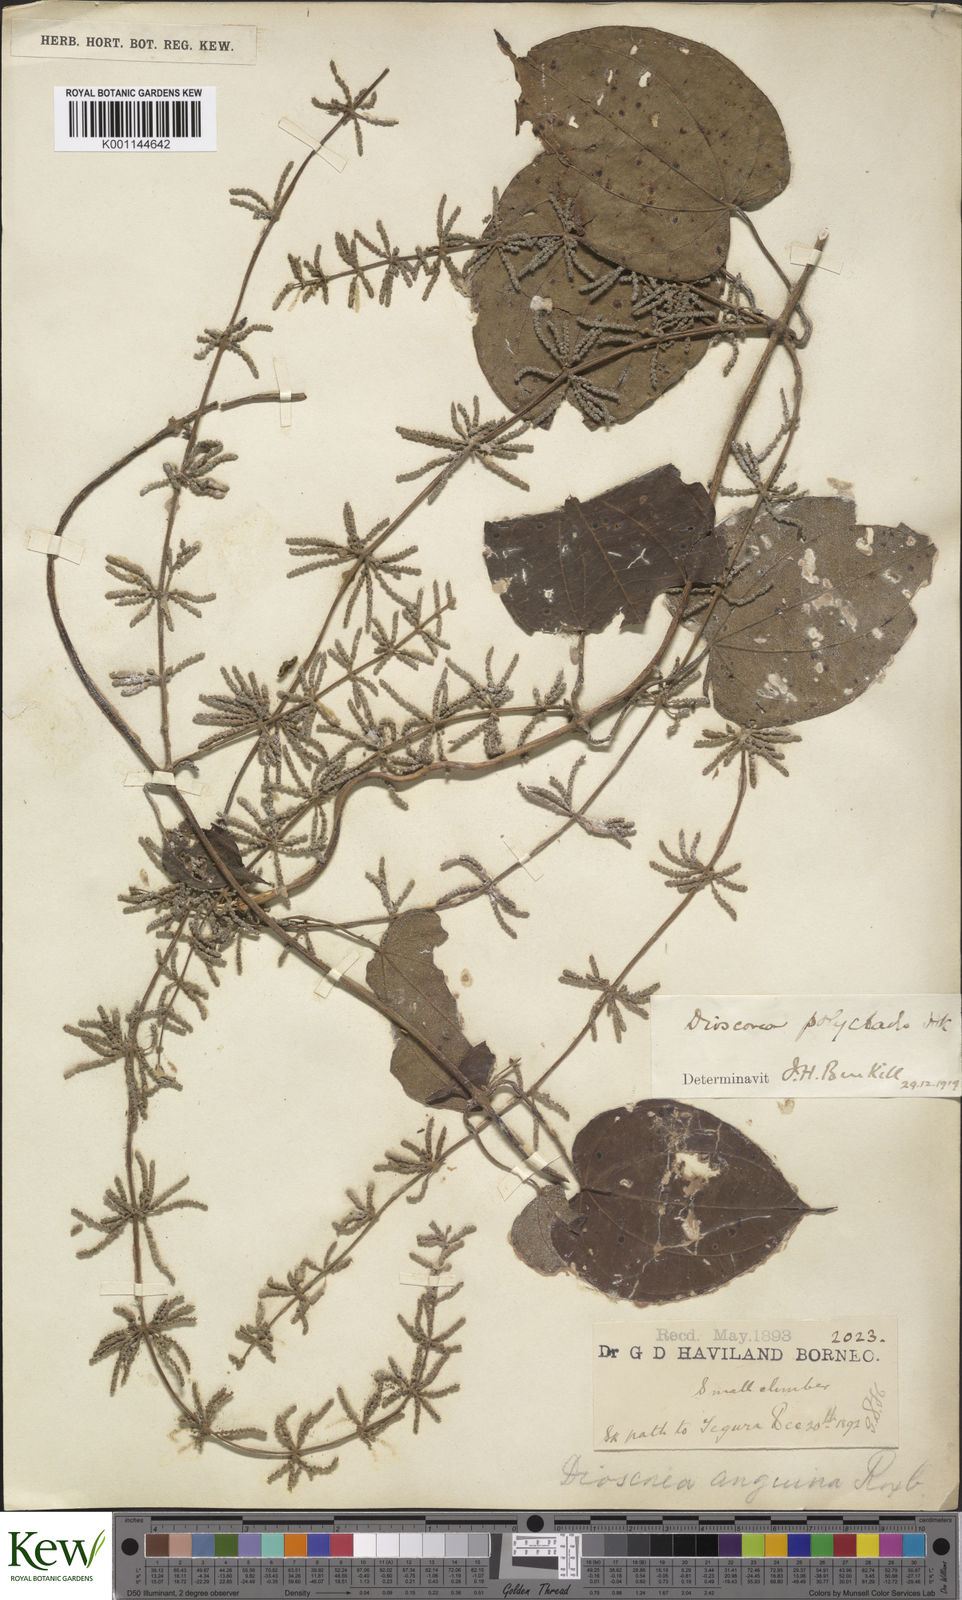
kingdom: Plantae
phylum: Tracheophyta
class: Liliopsida
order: Dioscoreales
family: Dioscoreaceae
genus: Dioscorea
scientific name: Dioscorea polyclados
